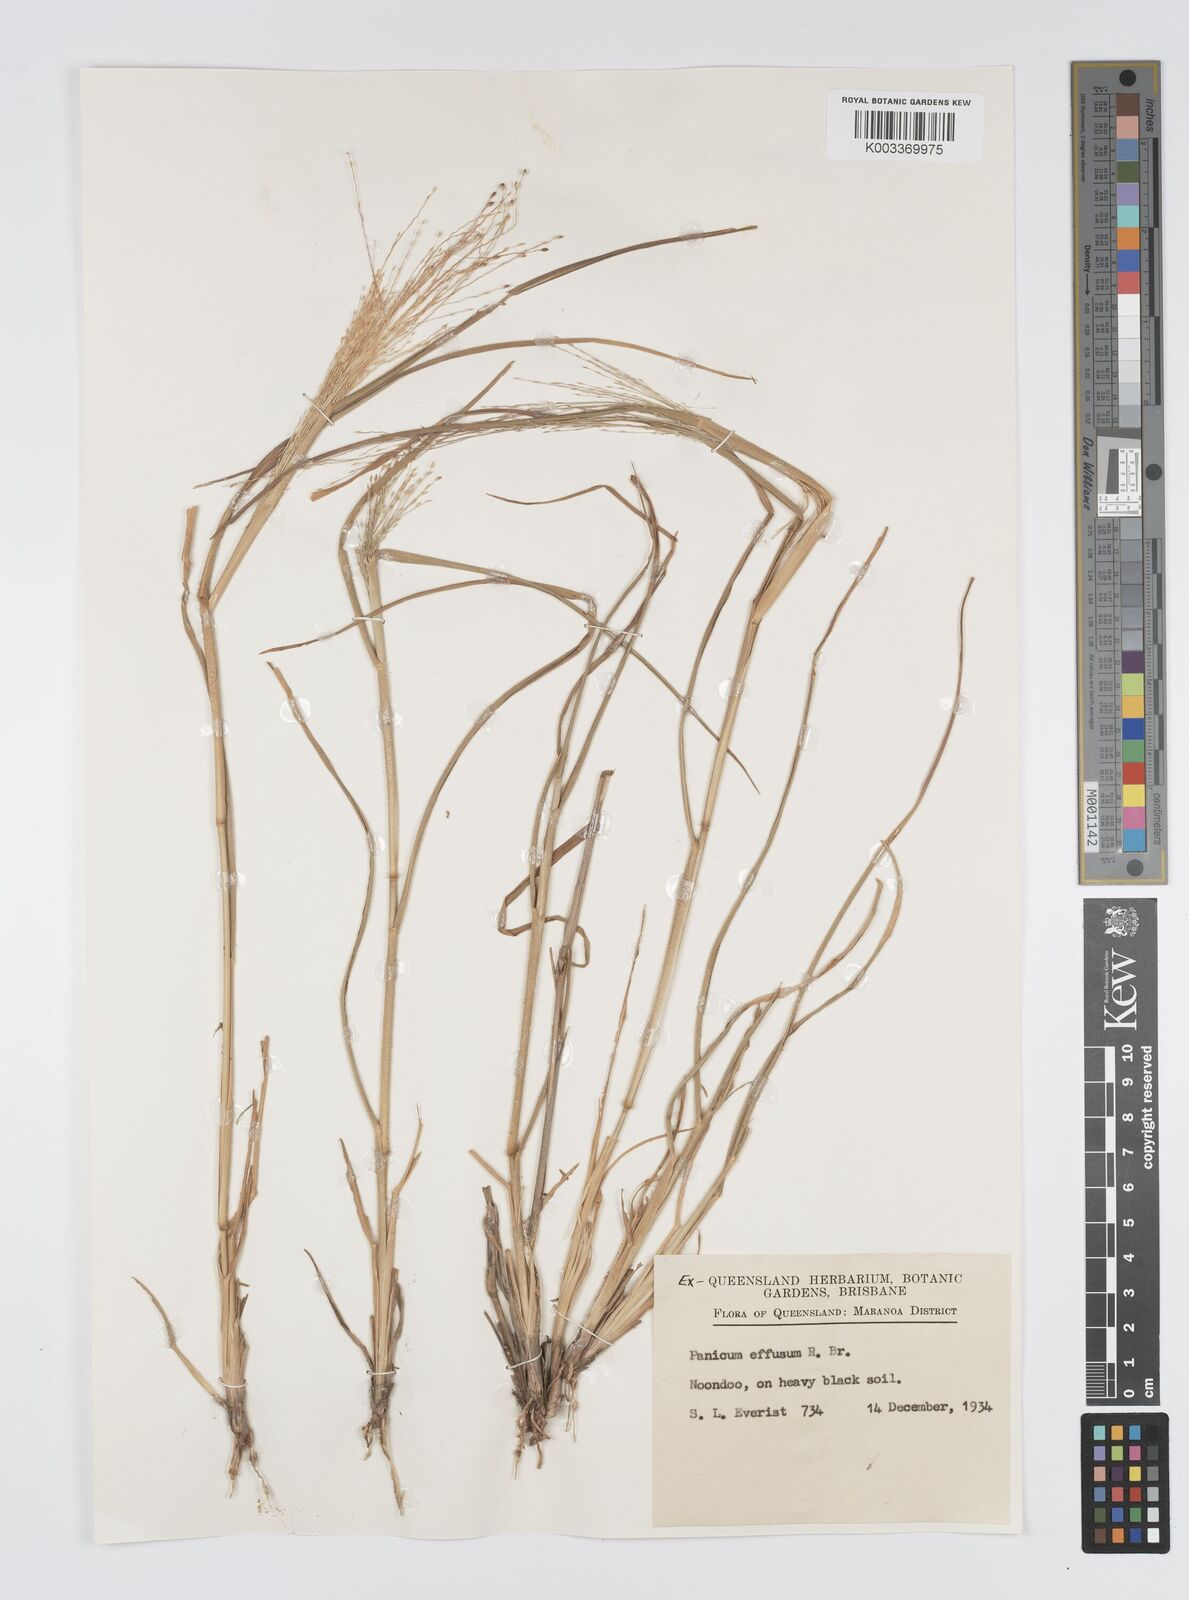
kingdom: Plantae
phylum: Tracheophyta
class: Liliopsida
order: Poales
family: Poaceae
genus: Panicum
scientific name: Panicum effusum
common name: Hairy panic grass
